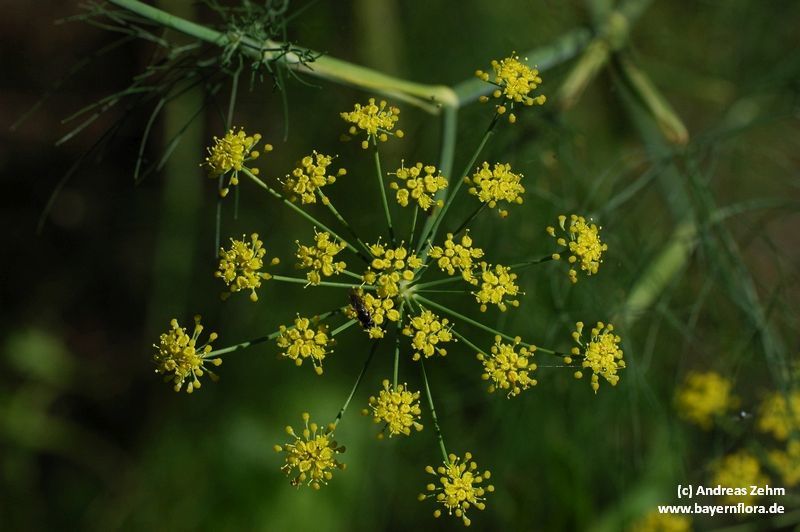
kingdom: Plantae
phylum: Tracheophyta
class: Magnoliopsida
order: Apiales
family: Apiaceae
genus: Foeniculum
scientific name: Foeniculum vulgare
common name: Fennel
